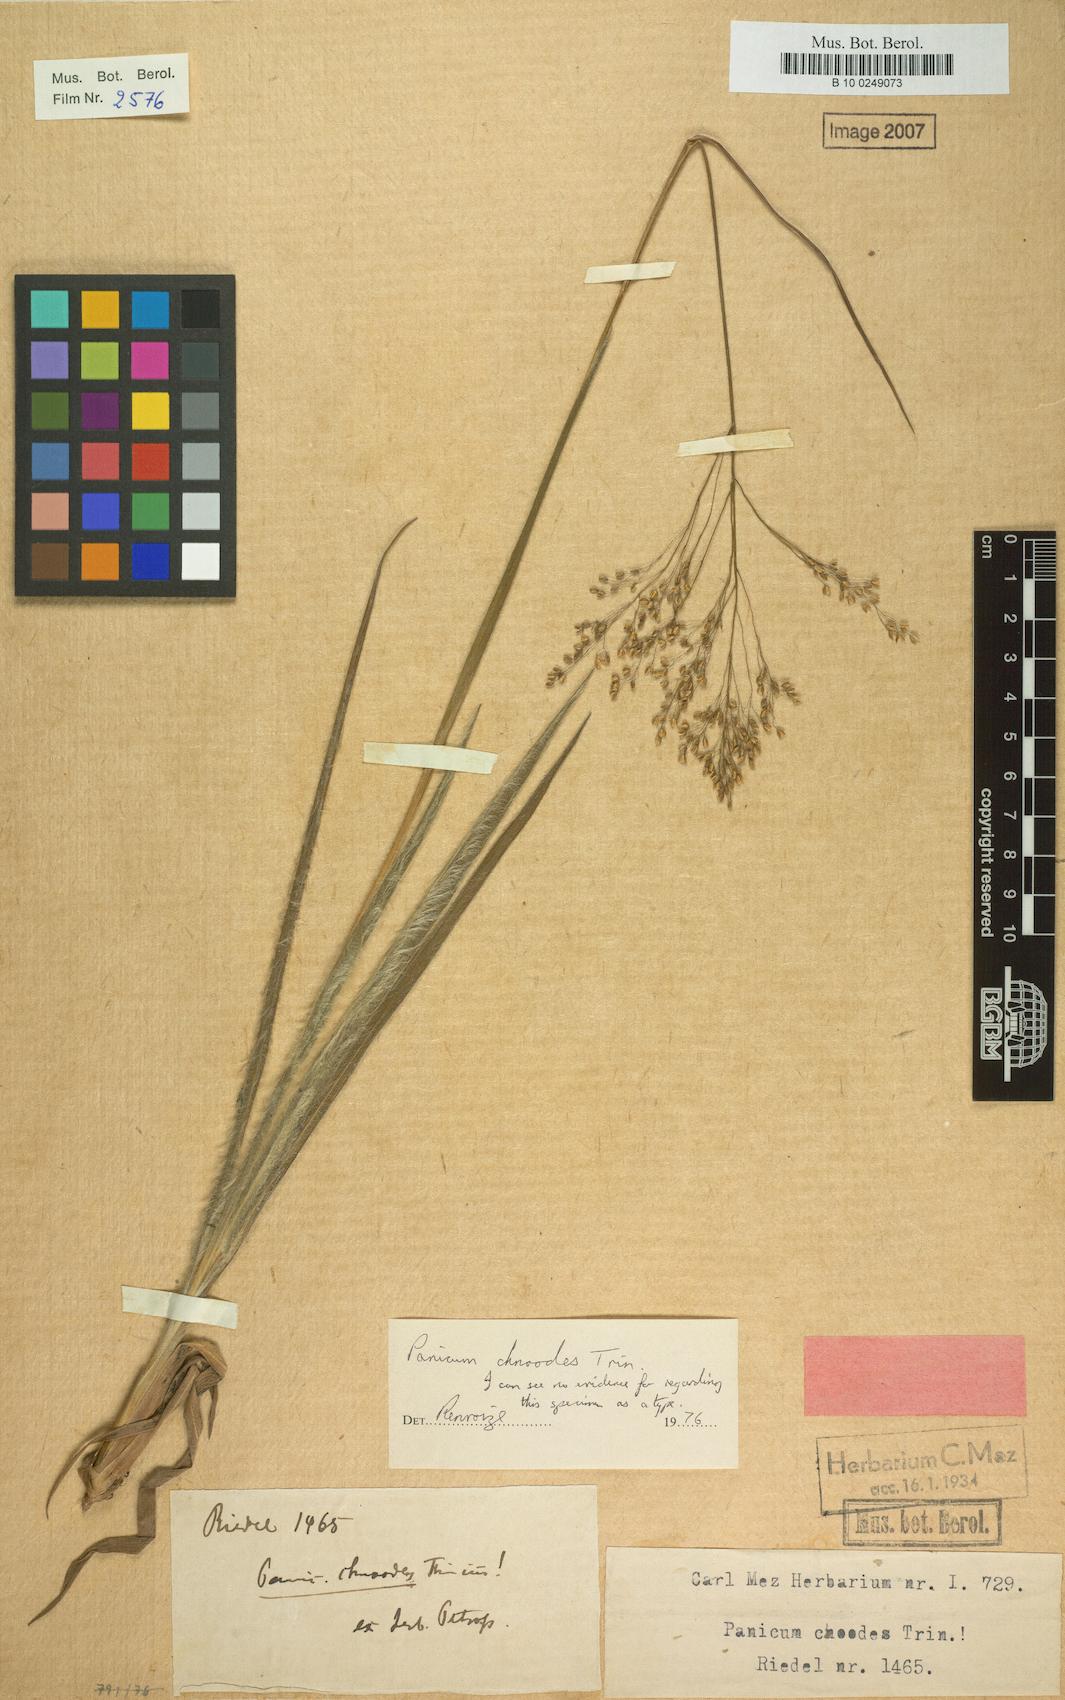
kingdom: Plantae
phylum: Tracheophyta
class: Liliopsida
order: Poales
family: Poaceae
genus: Apochloa
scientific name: Apochloa chnoodes
